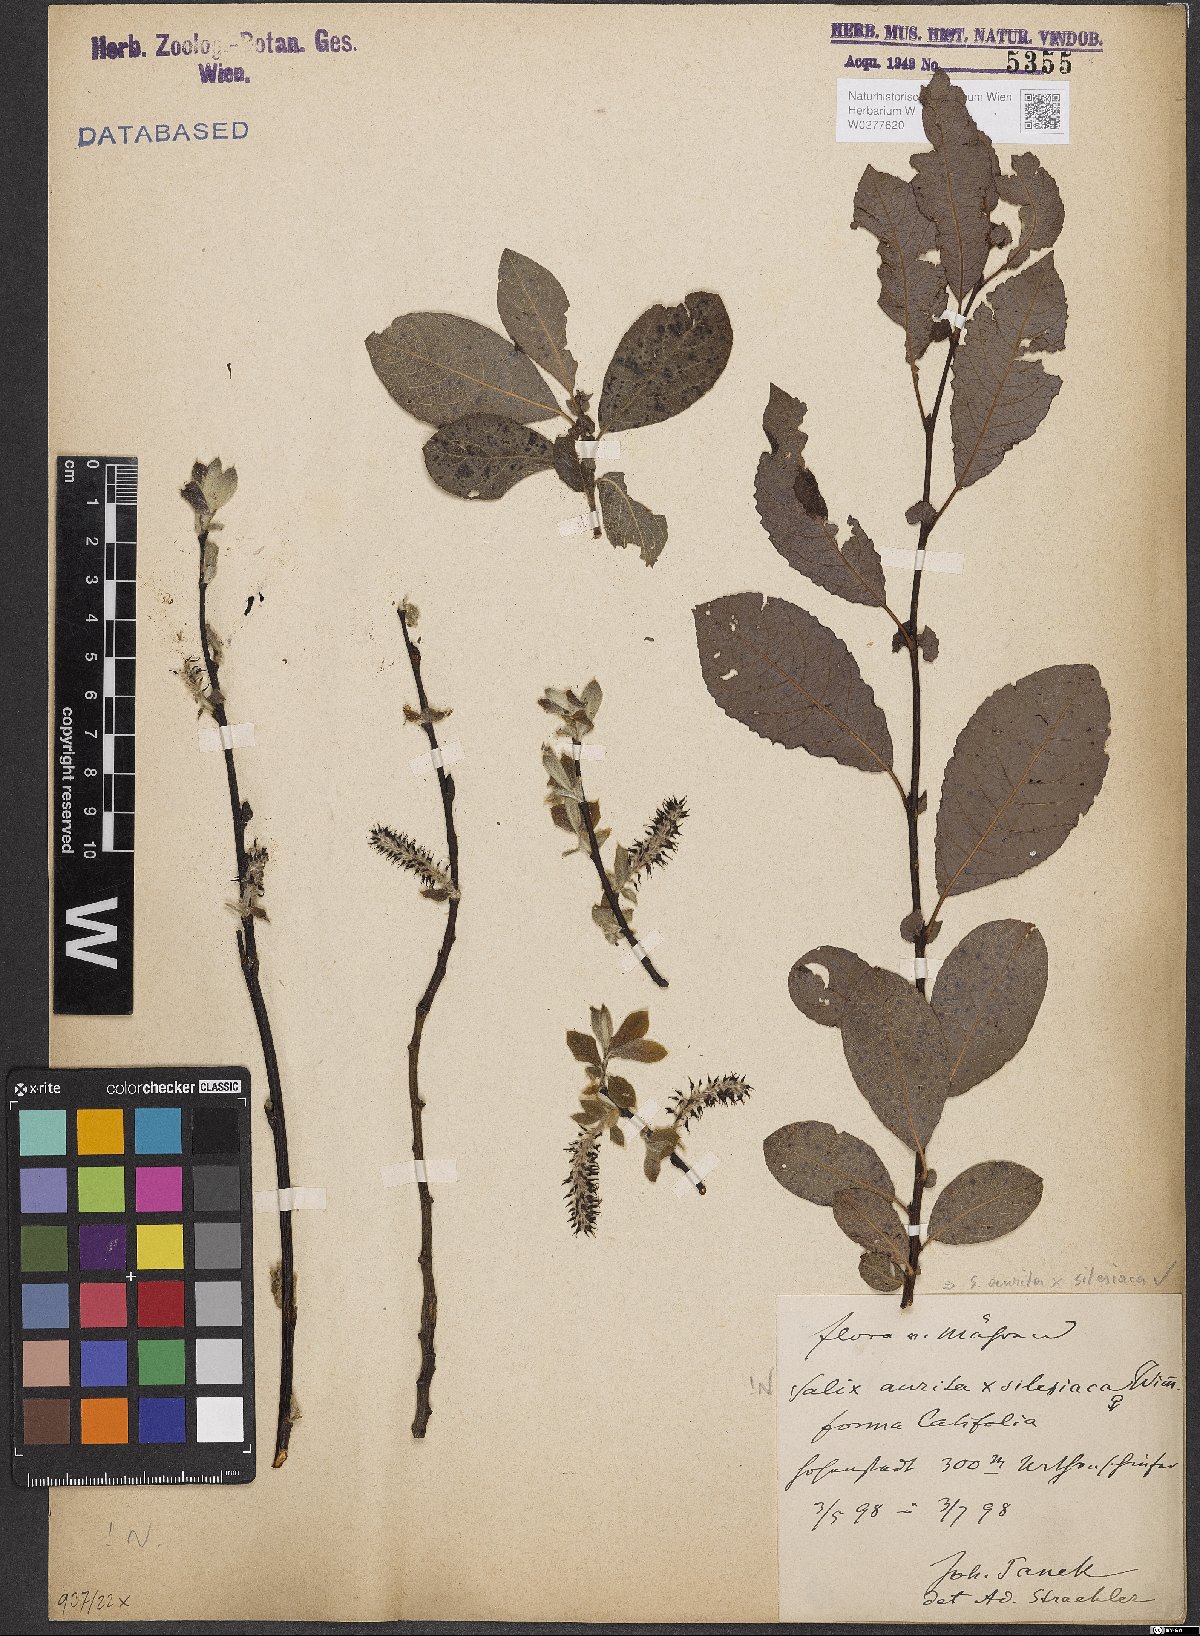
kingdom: Plantae
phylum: Tracheophyta
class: Magnoliopsida
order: Malpighiales
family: Salicaceae
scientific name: Salicaceae
